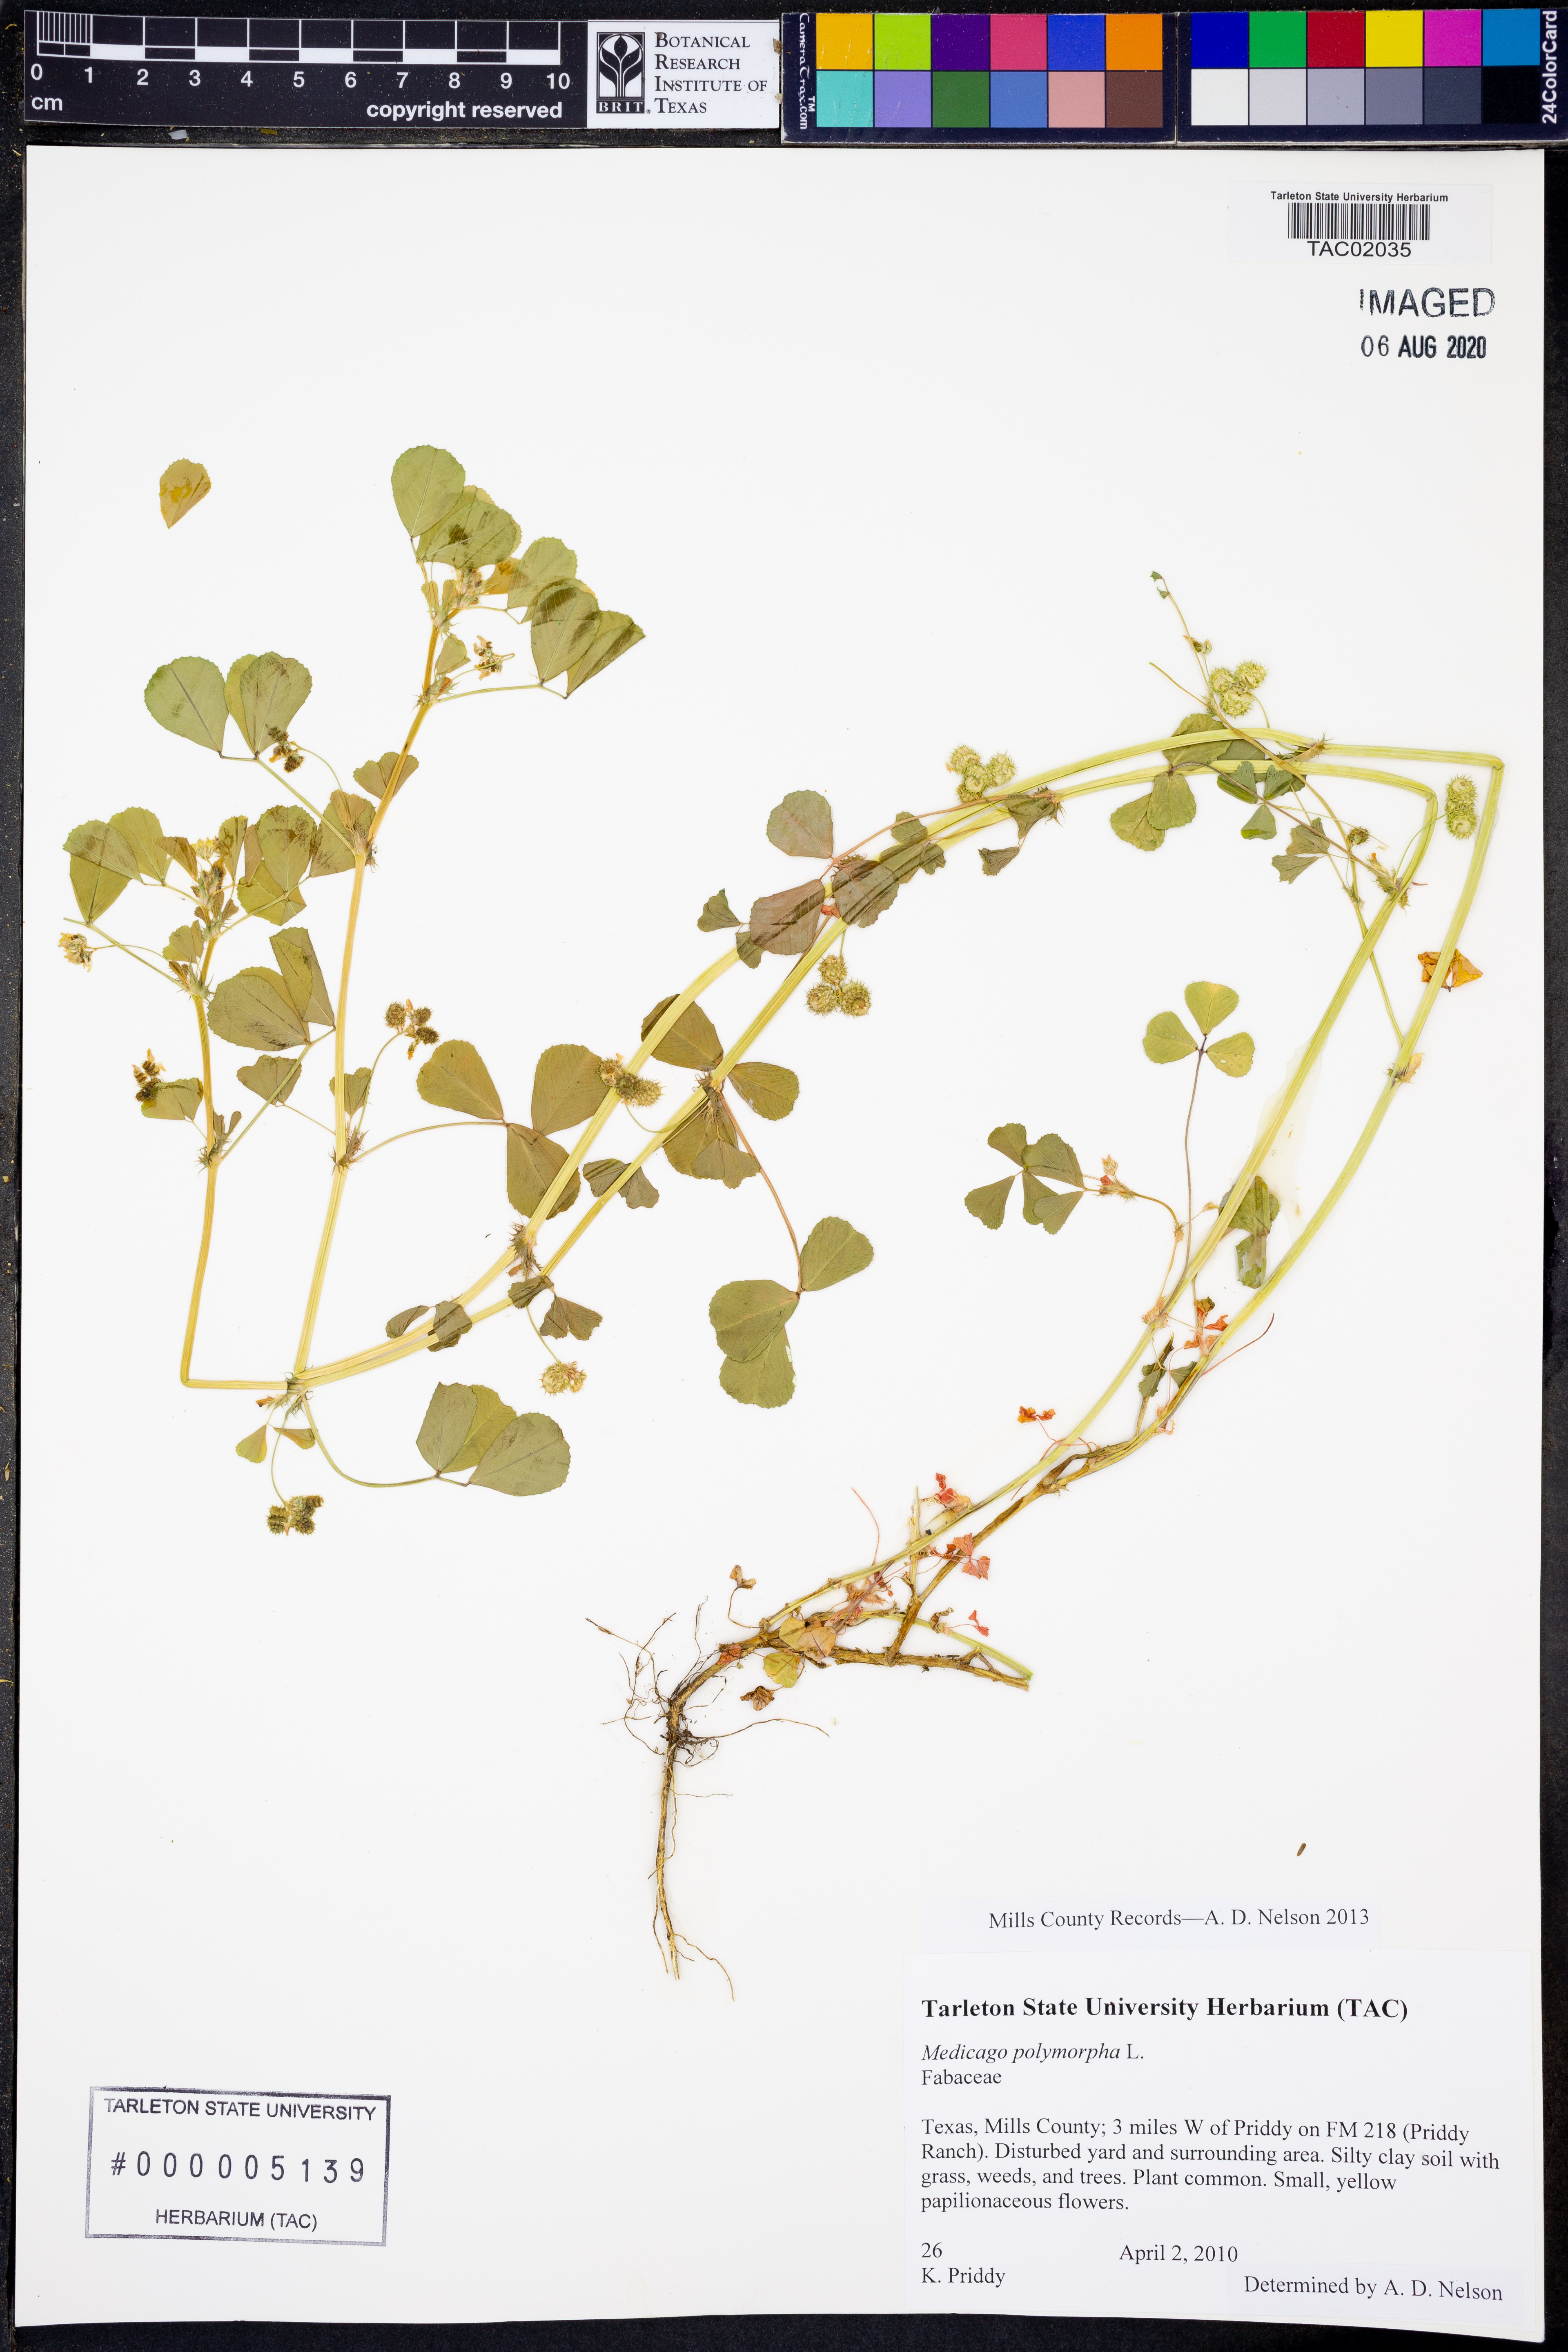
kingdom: Plantae
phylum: Tracheophyta
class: Magnoliopsida
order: Fabales
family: Fabaceae
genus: Medicago
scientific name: Medicago polymorpha
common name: Burclover
